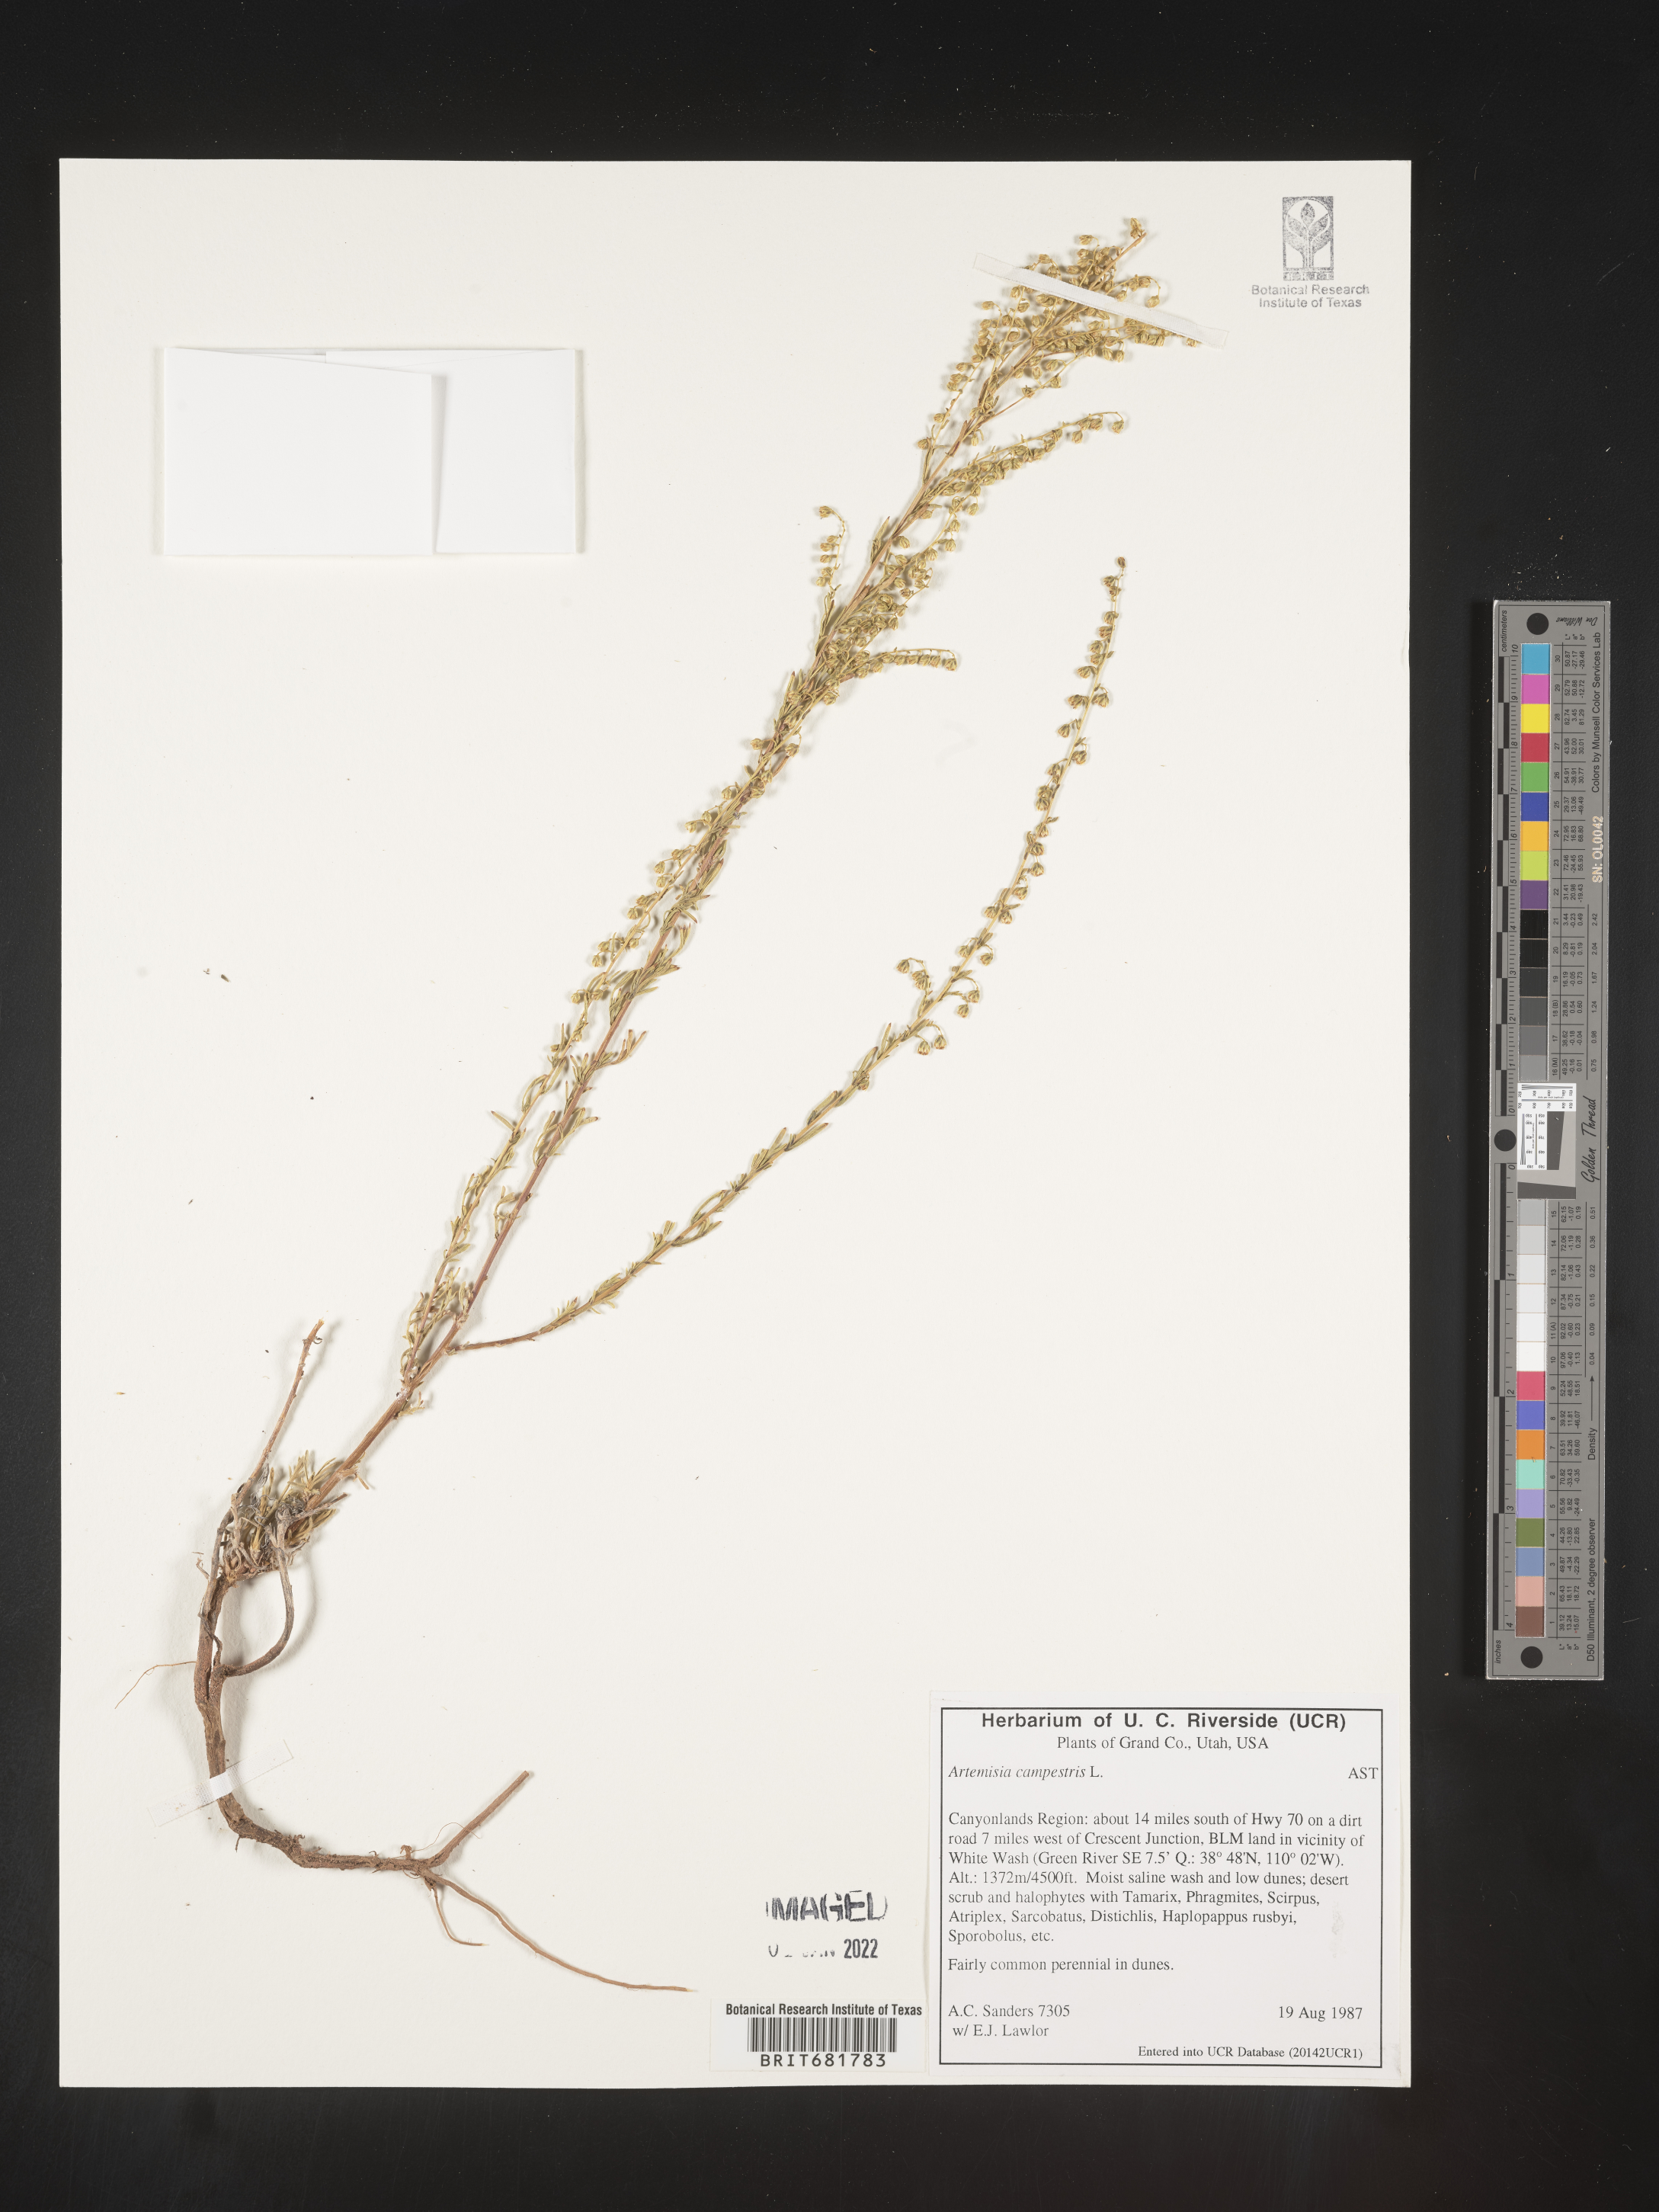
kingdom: Plantae
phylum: Tracheophyta
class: Magnoliopsida
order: Asterales
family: Asteraceae
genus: Artemisia
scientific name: Artemisia campestris
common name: Field wormwood
